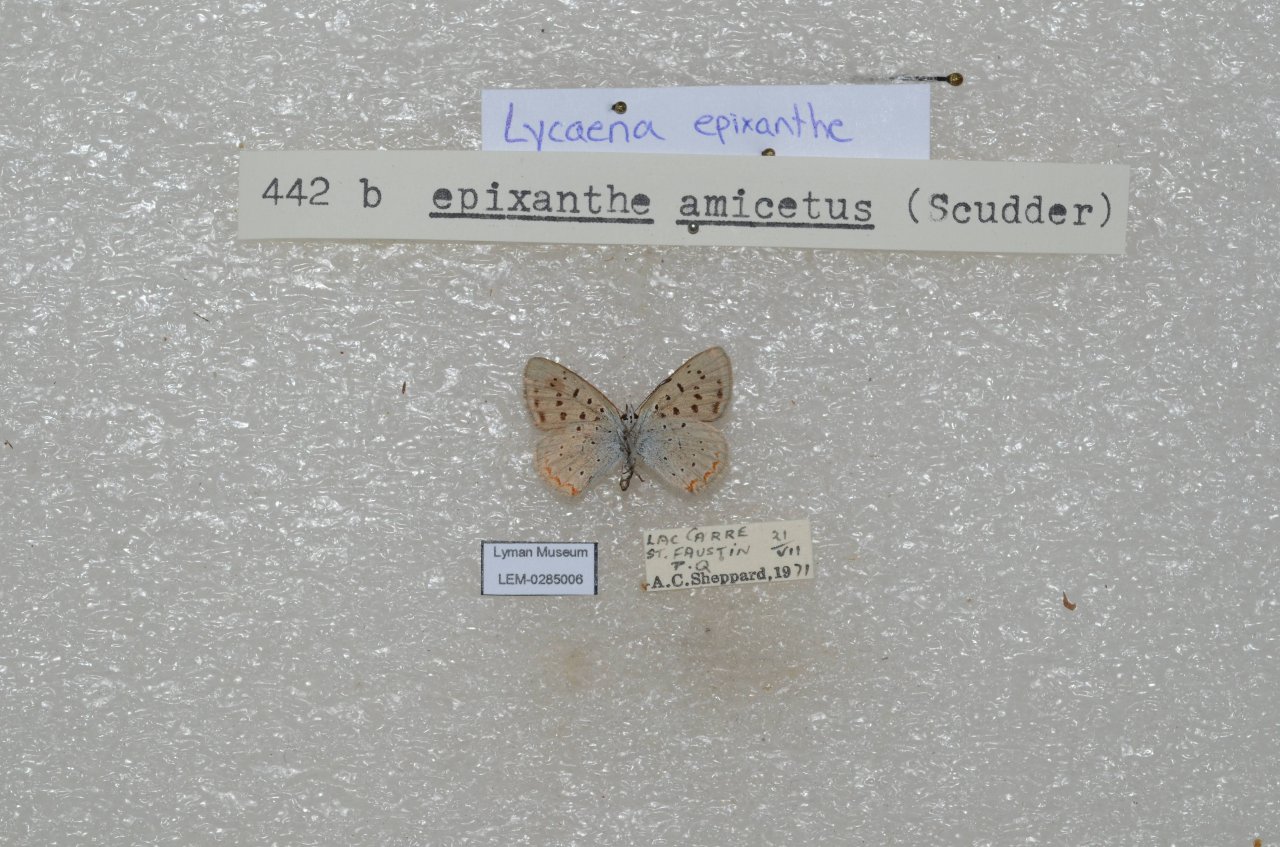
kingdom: Animalia
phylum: Arthropoda
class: Insecta
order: Lepidoptera
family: Sesiidae
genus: Sesia
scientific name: Sesia Lycaena epixanthe
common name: Bog Copper
